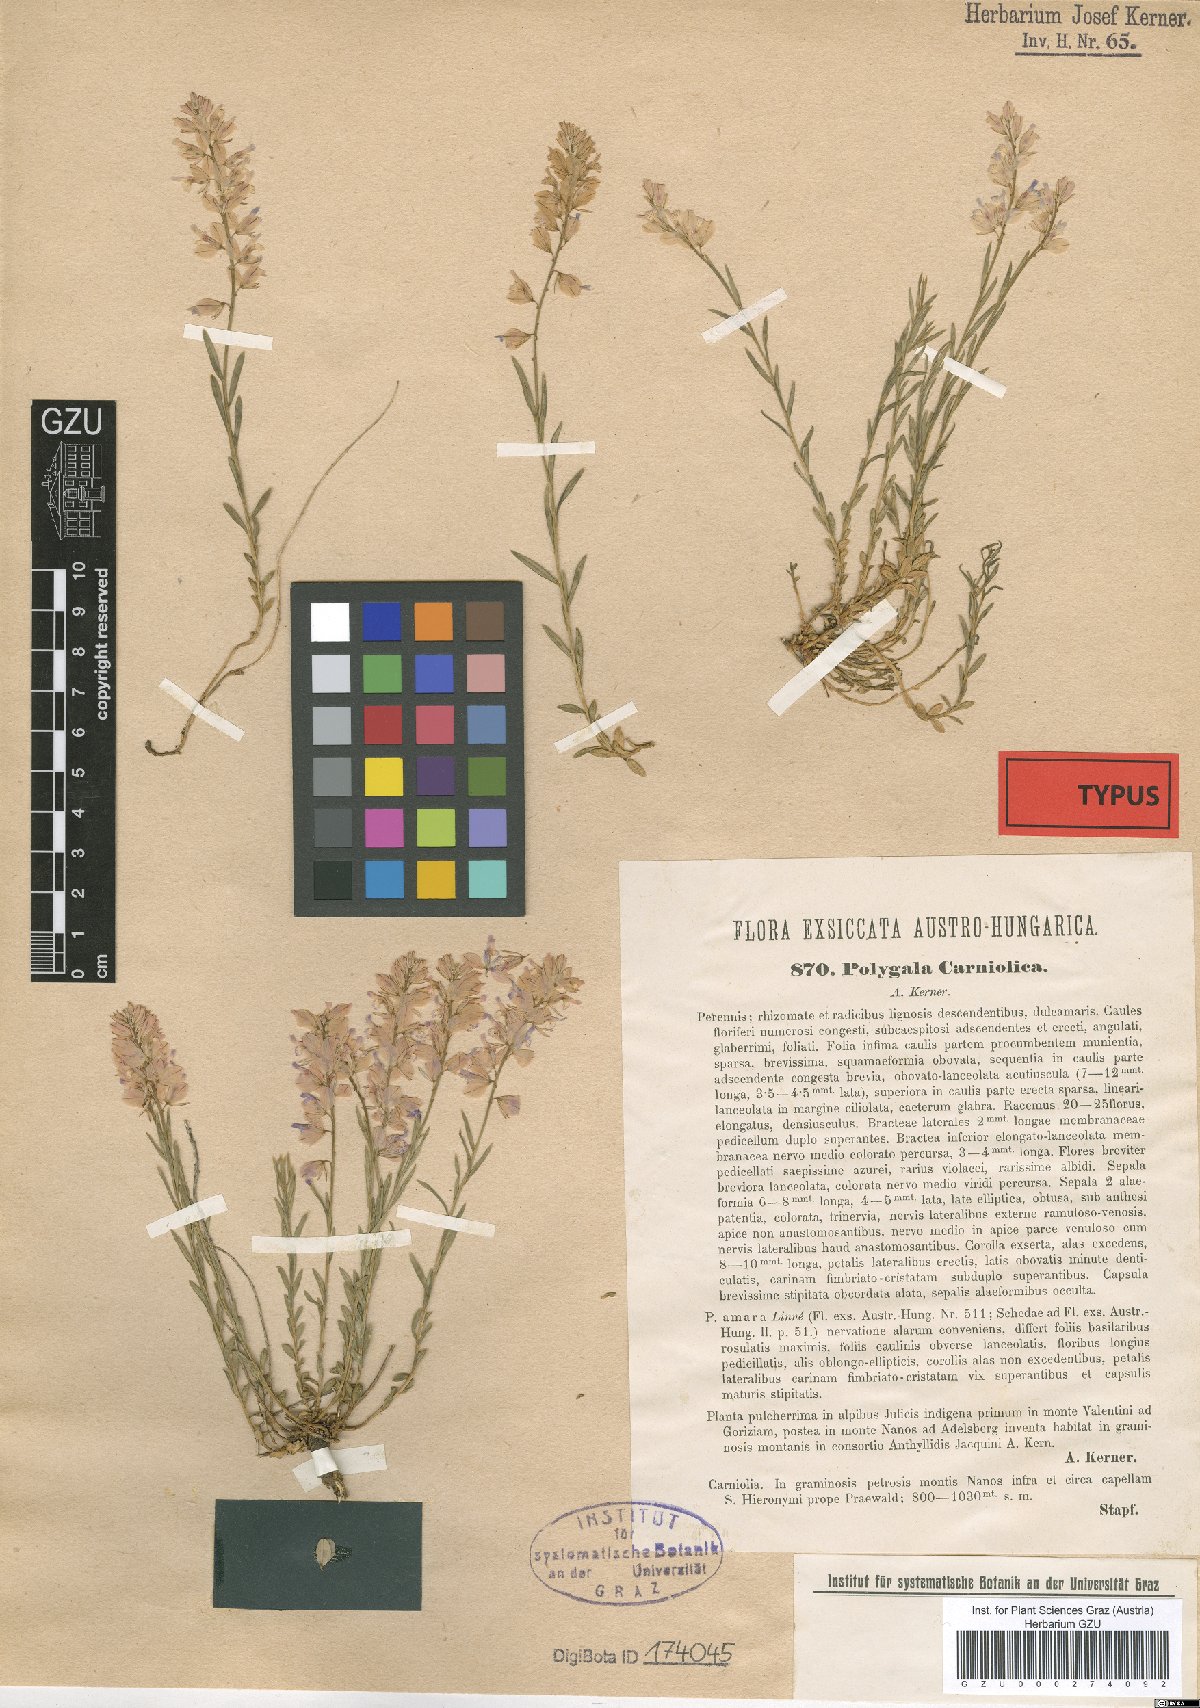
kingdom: Plantae
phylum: Tracheophyta
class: Magnoliopsida
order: Fabales
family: Polygalaceae
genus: Polygala
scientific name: Polygala forojulensis
